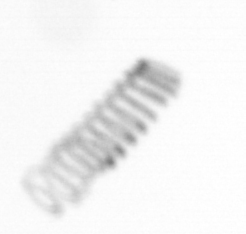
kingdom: Chromista
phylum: Ochrophyta
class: Bacillariophyceae
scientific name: Bacillariophyceae
